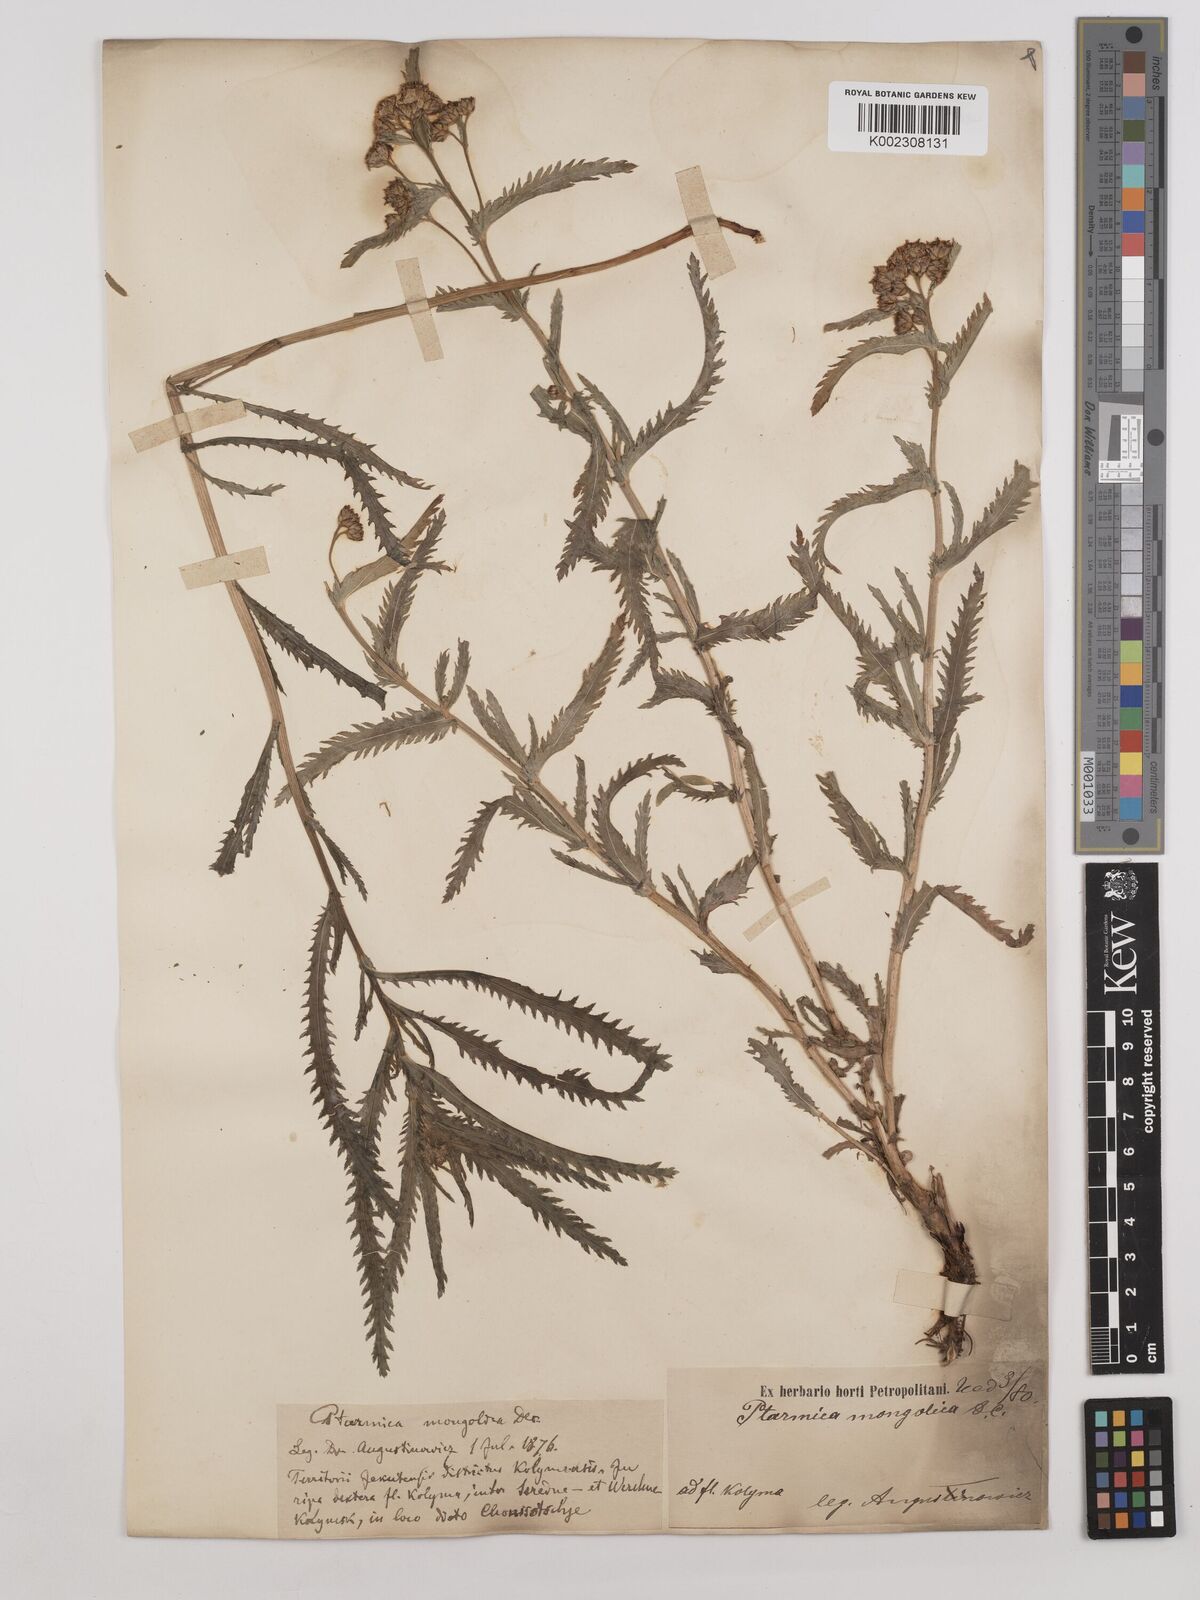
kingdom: Plantae
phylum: Tracheophyta
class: Magnoliopsida
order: Asterales
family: Asteraceae
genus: Achillea
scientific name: Achillea alpina
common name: Siberian yarrow
